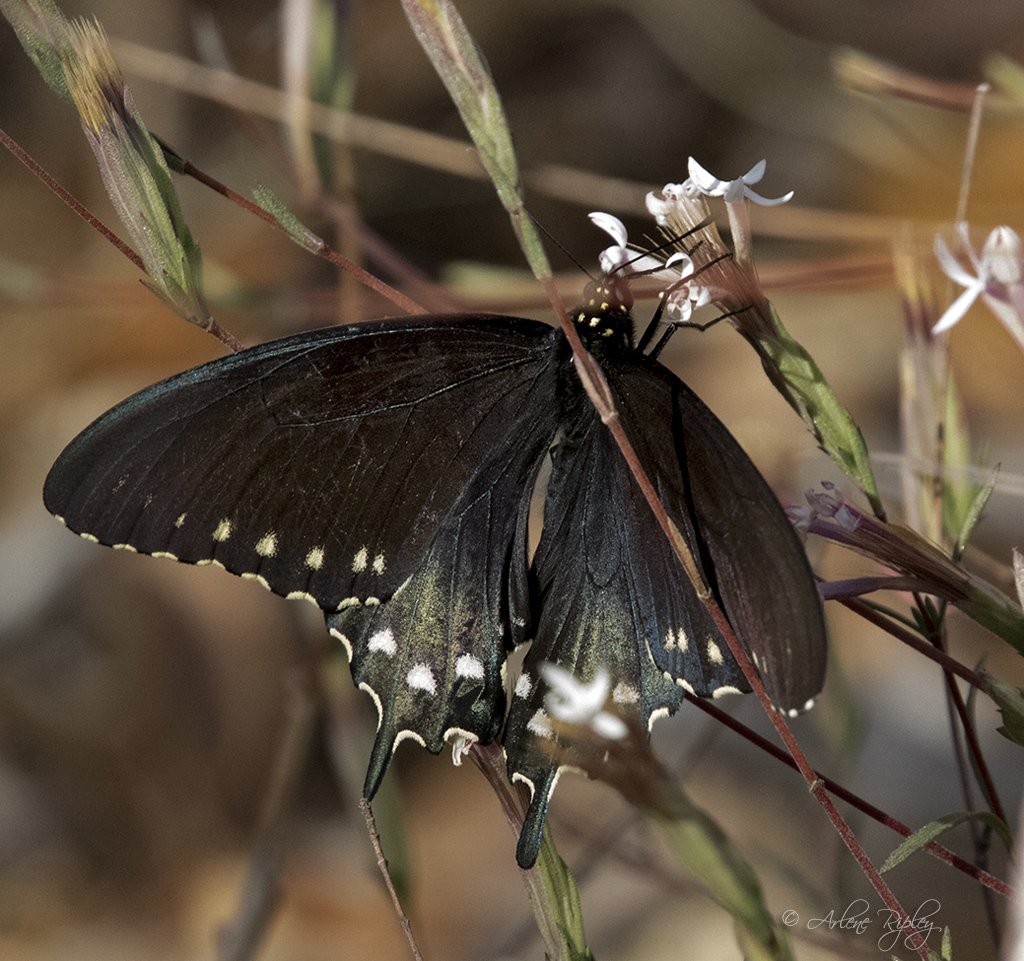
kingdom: Animalia
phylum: Arthropoda
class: Insecta
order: Lepidoptera
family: Papilionidae
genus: Battus
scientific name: Battus philenor
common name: Pipevine Swallowtail
